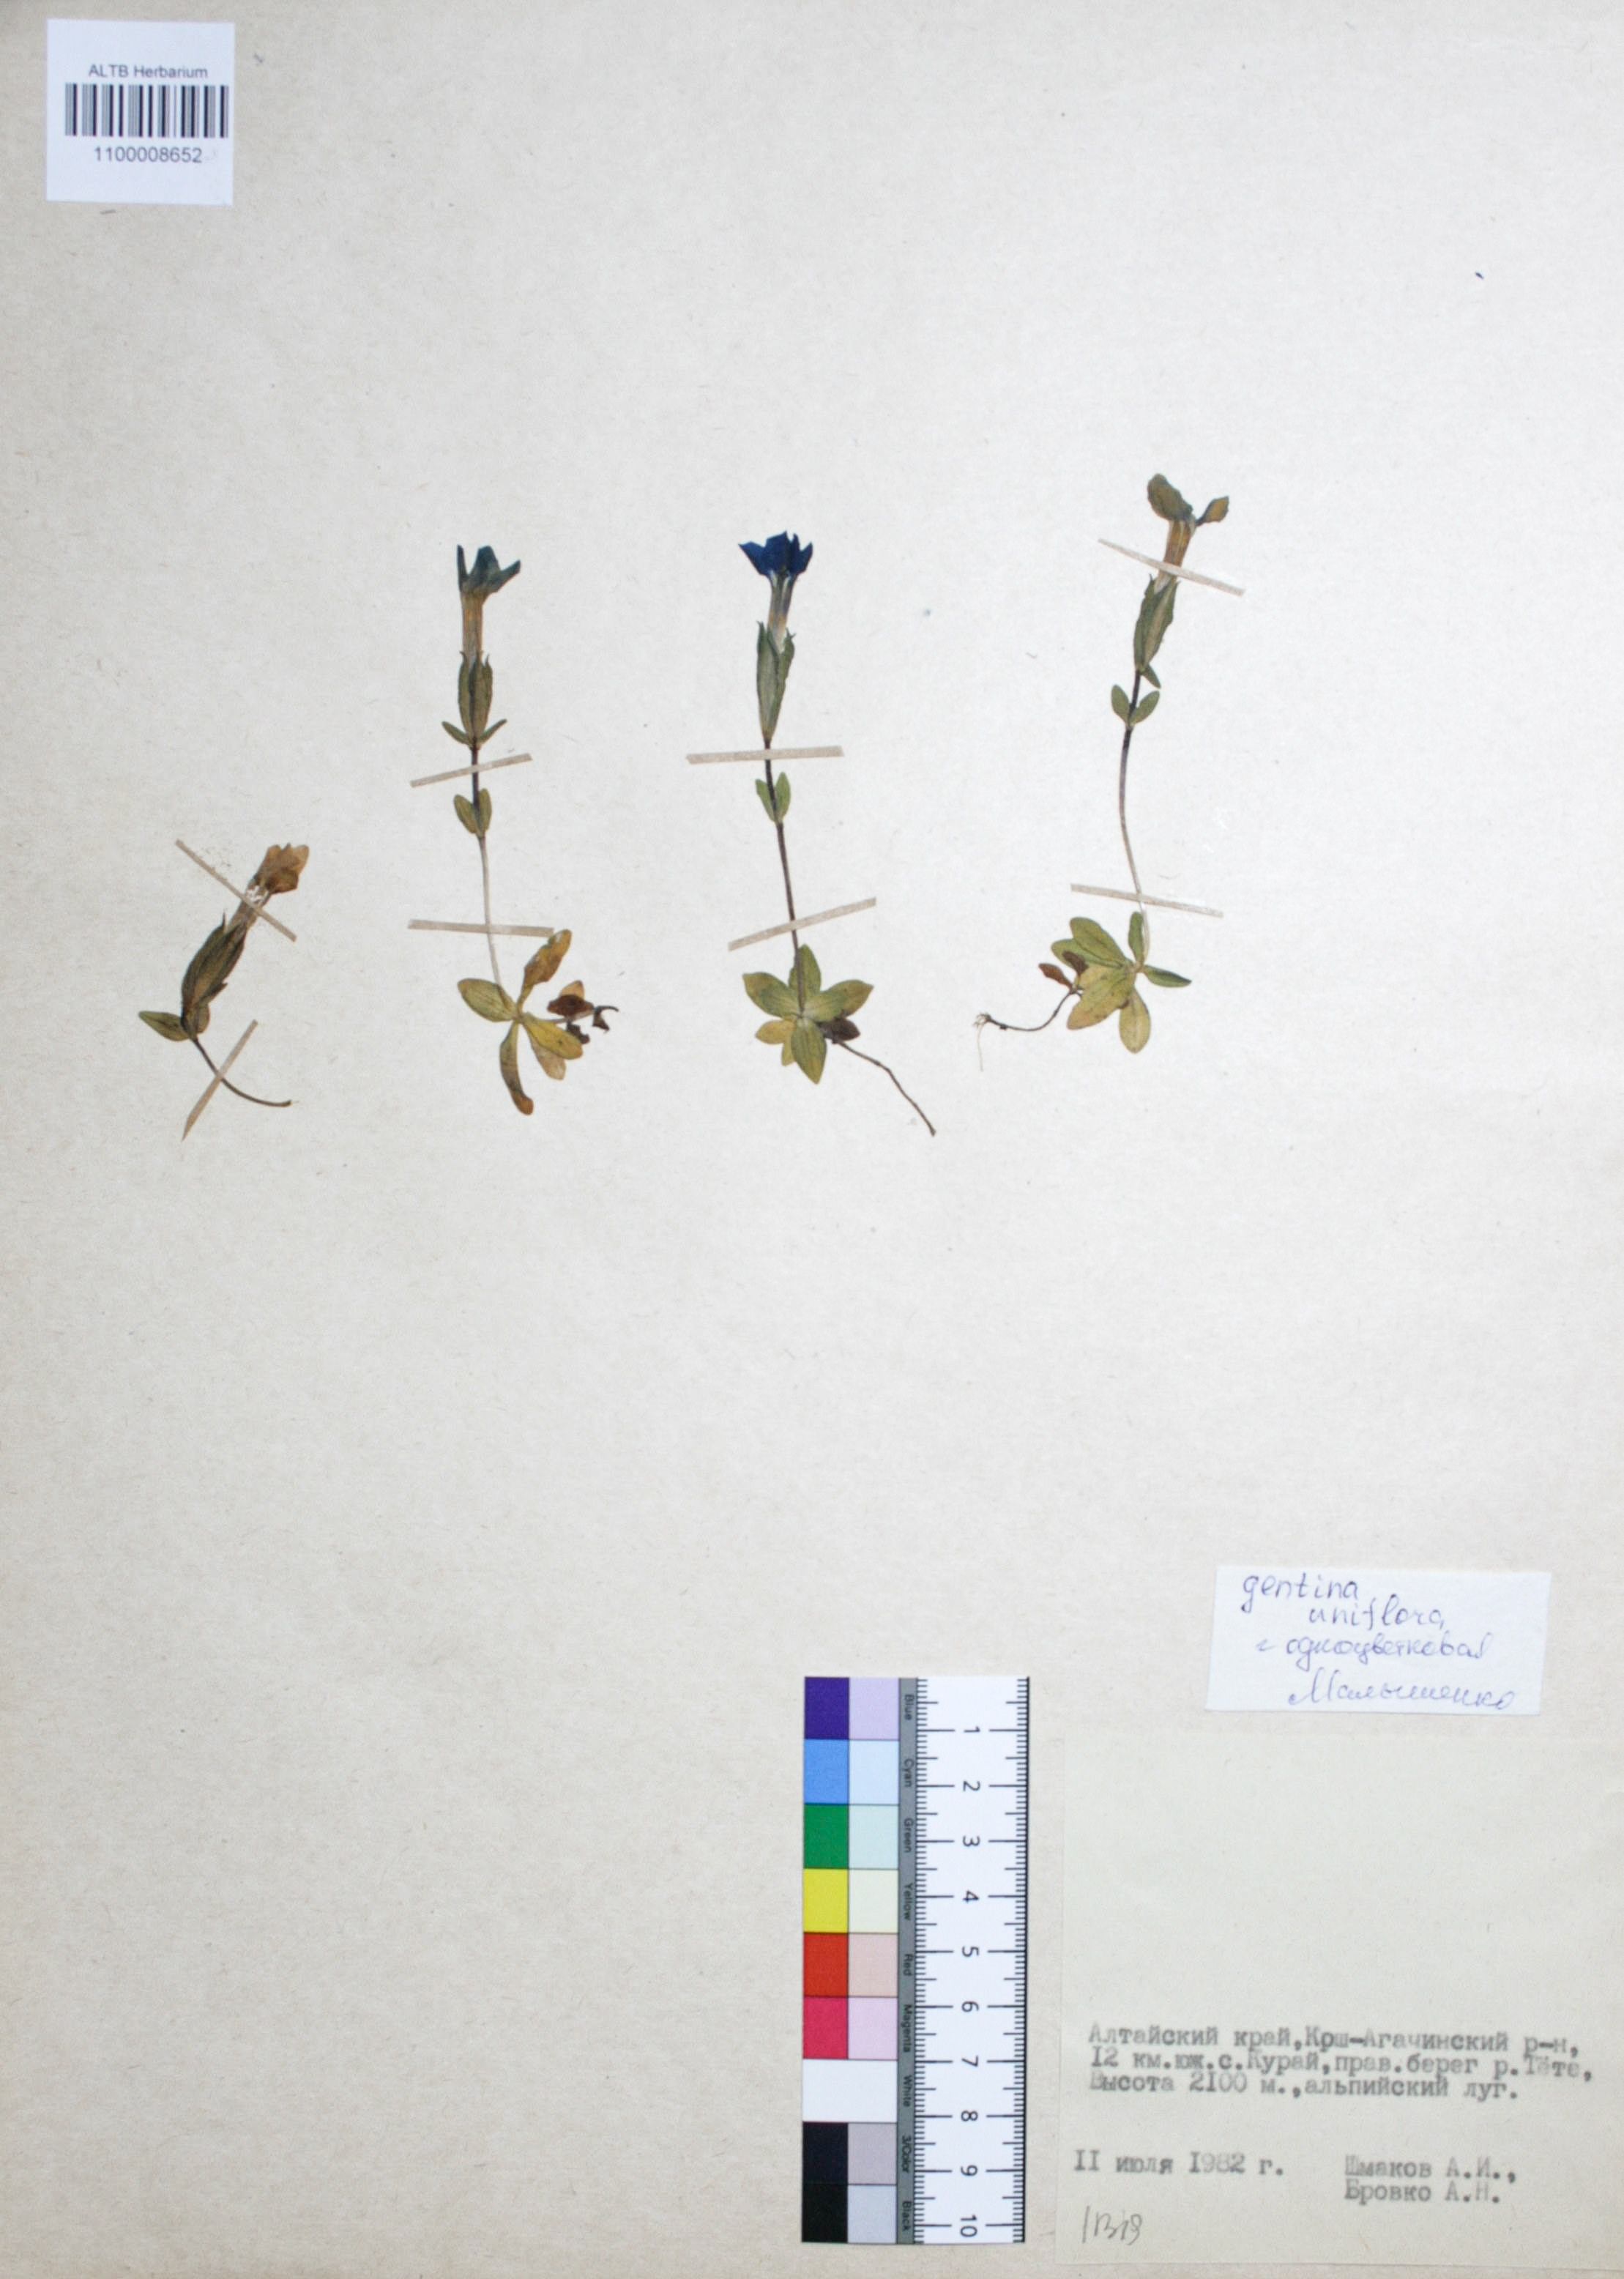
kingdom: Plantae
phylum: Tracheophyta
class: Magnoliopsida
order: Gentianales
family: Gentianaceae
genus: Gentiana
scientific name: Gentiana uniflora
